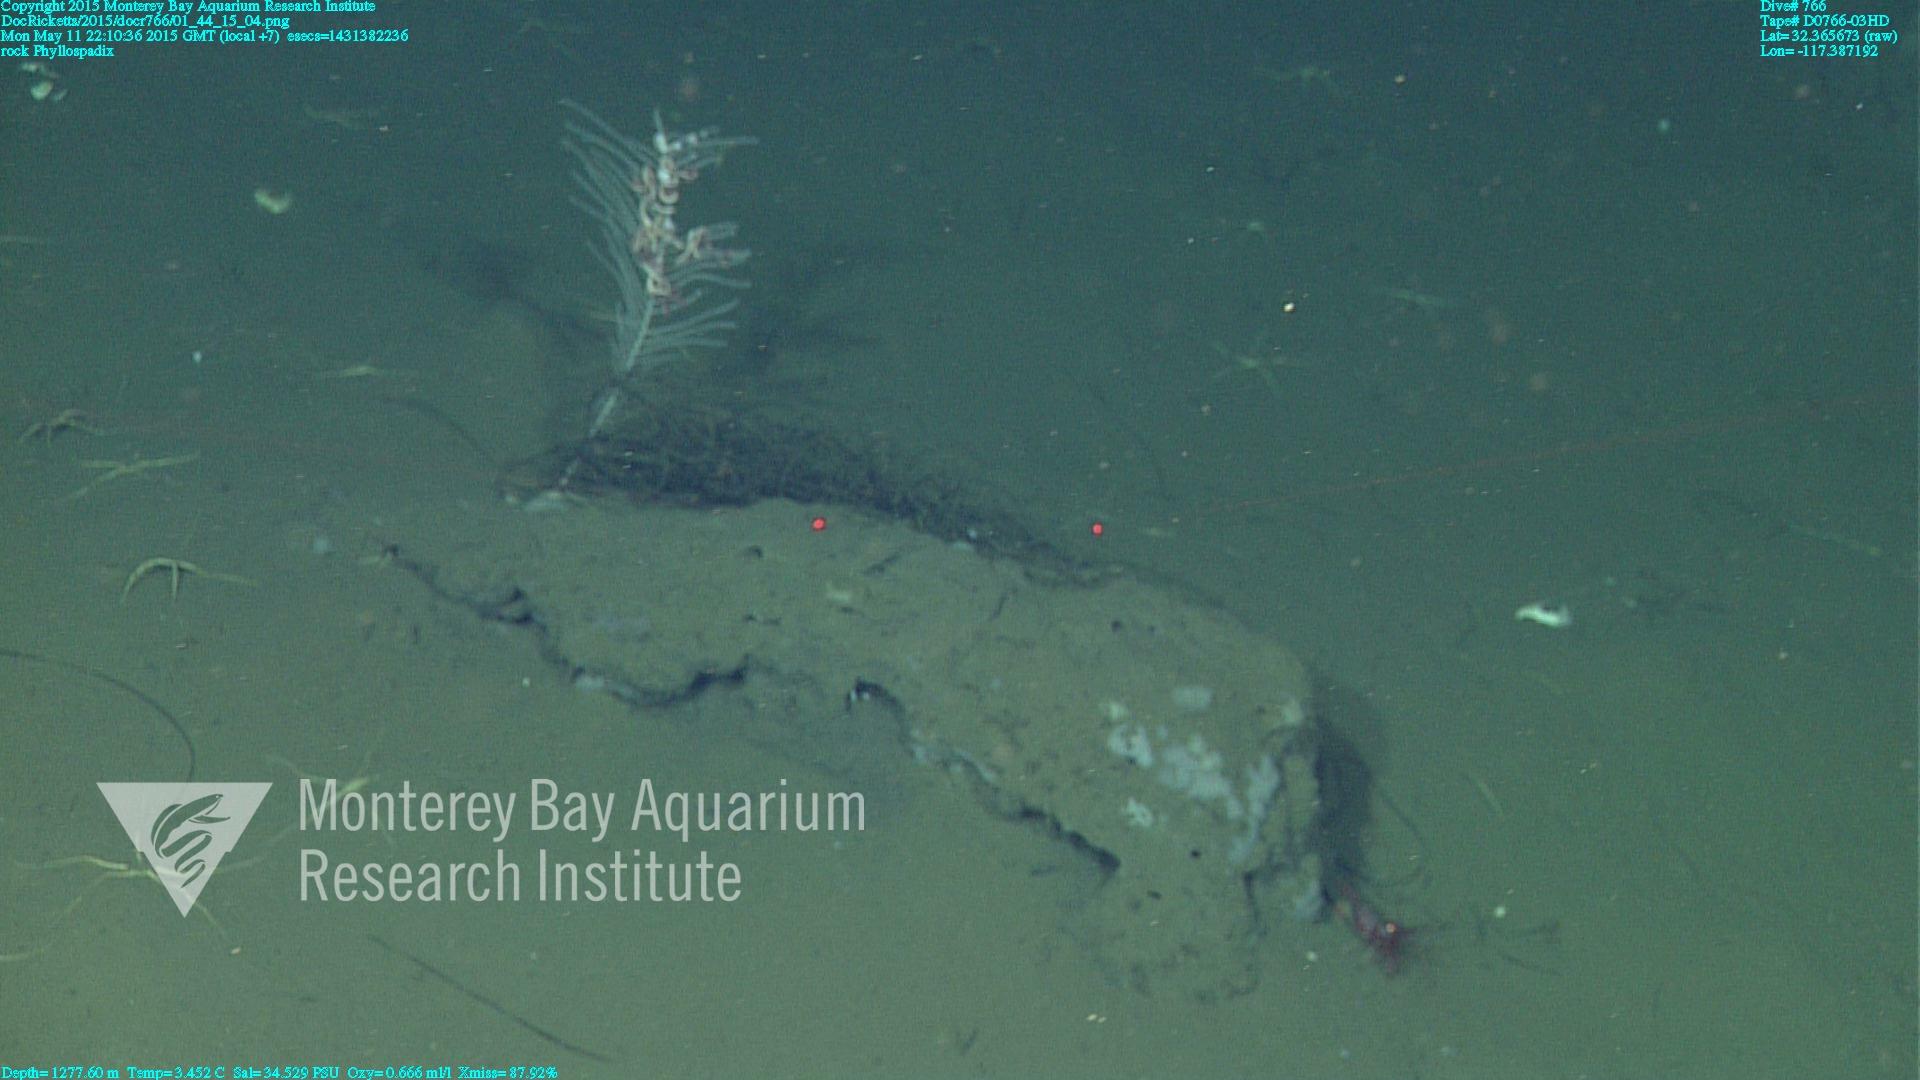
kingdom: Animalia
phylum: Cnidaria
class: Anthozoa
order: Scleralcyonacea
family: Primnoidae
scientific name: Primnoidae
